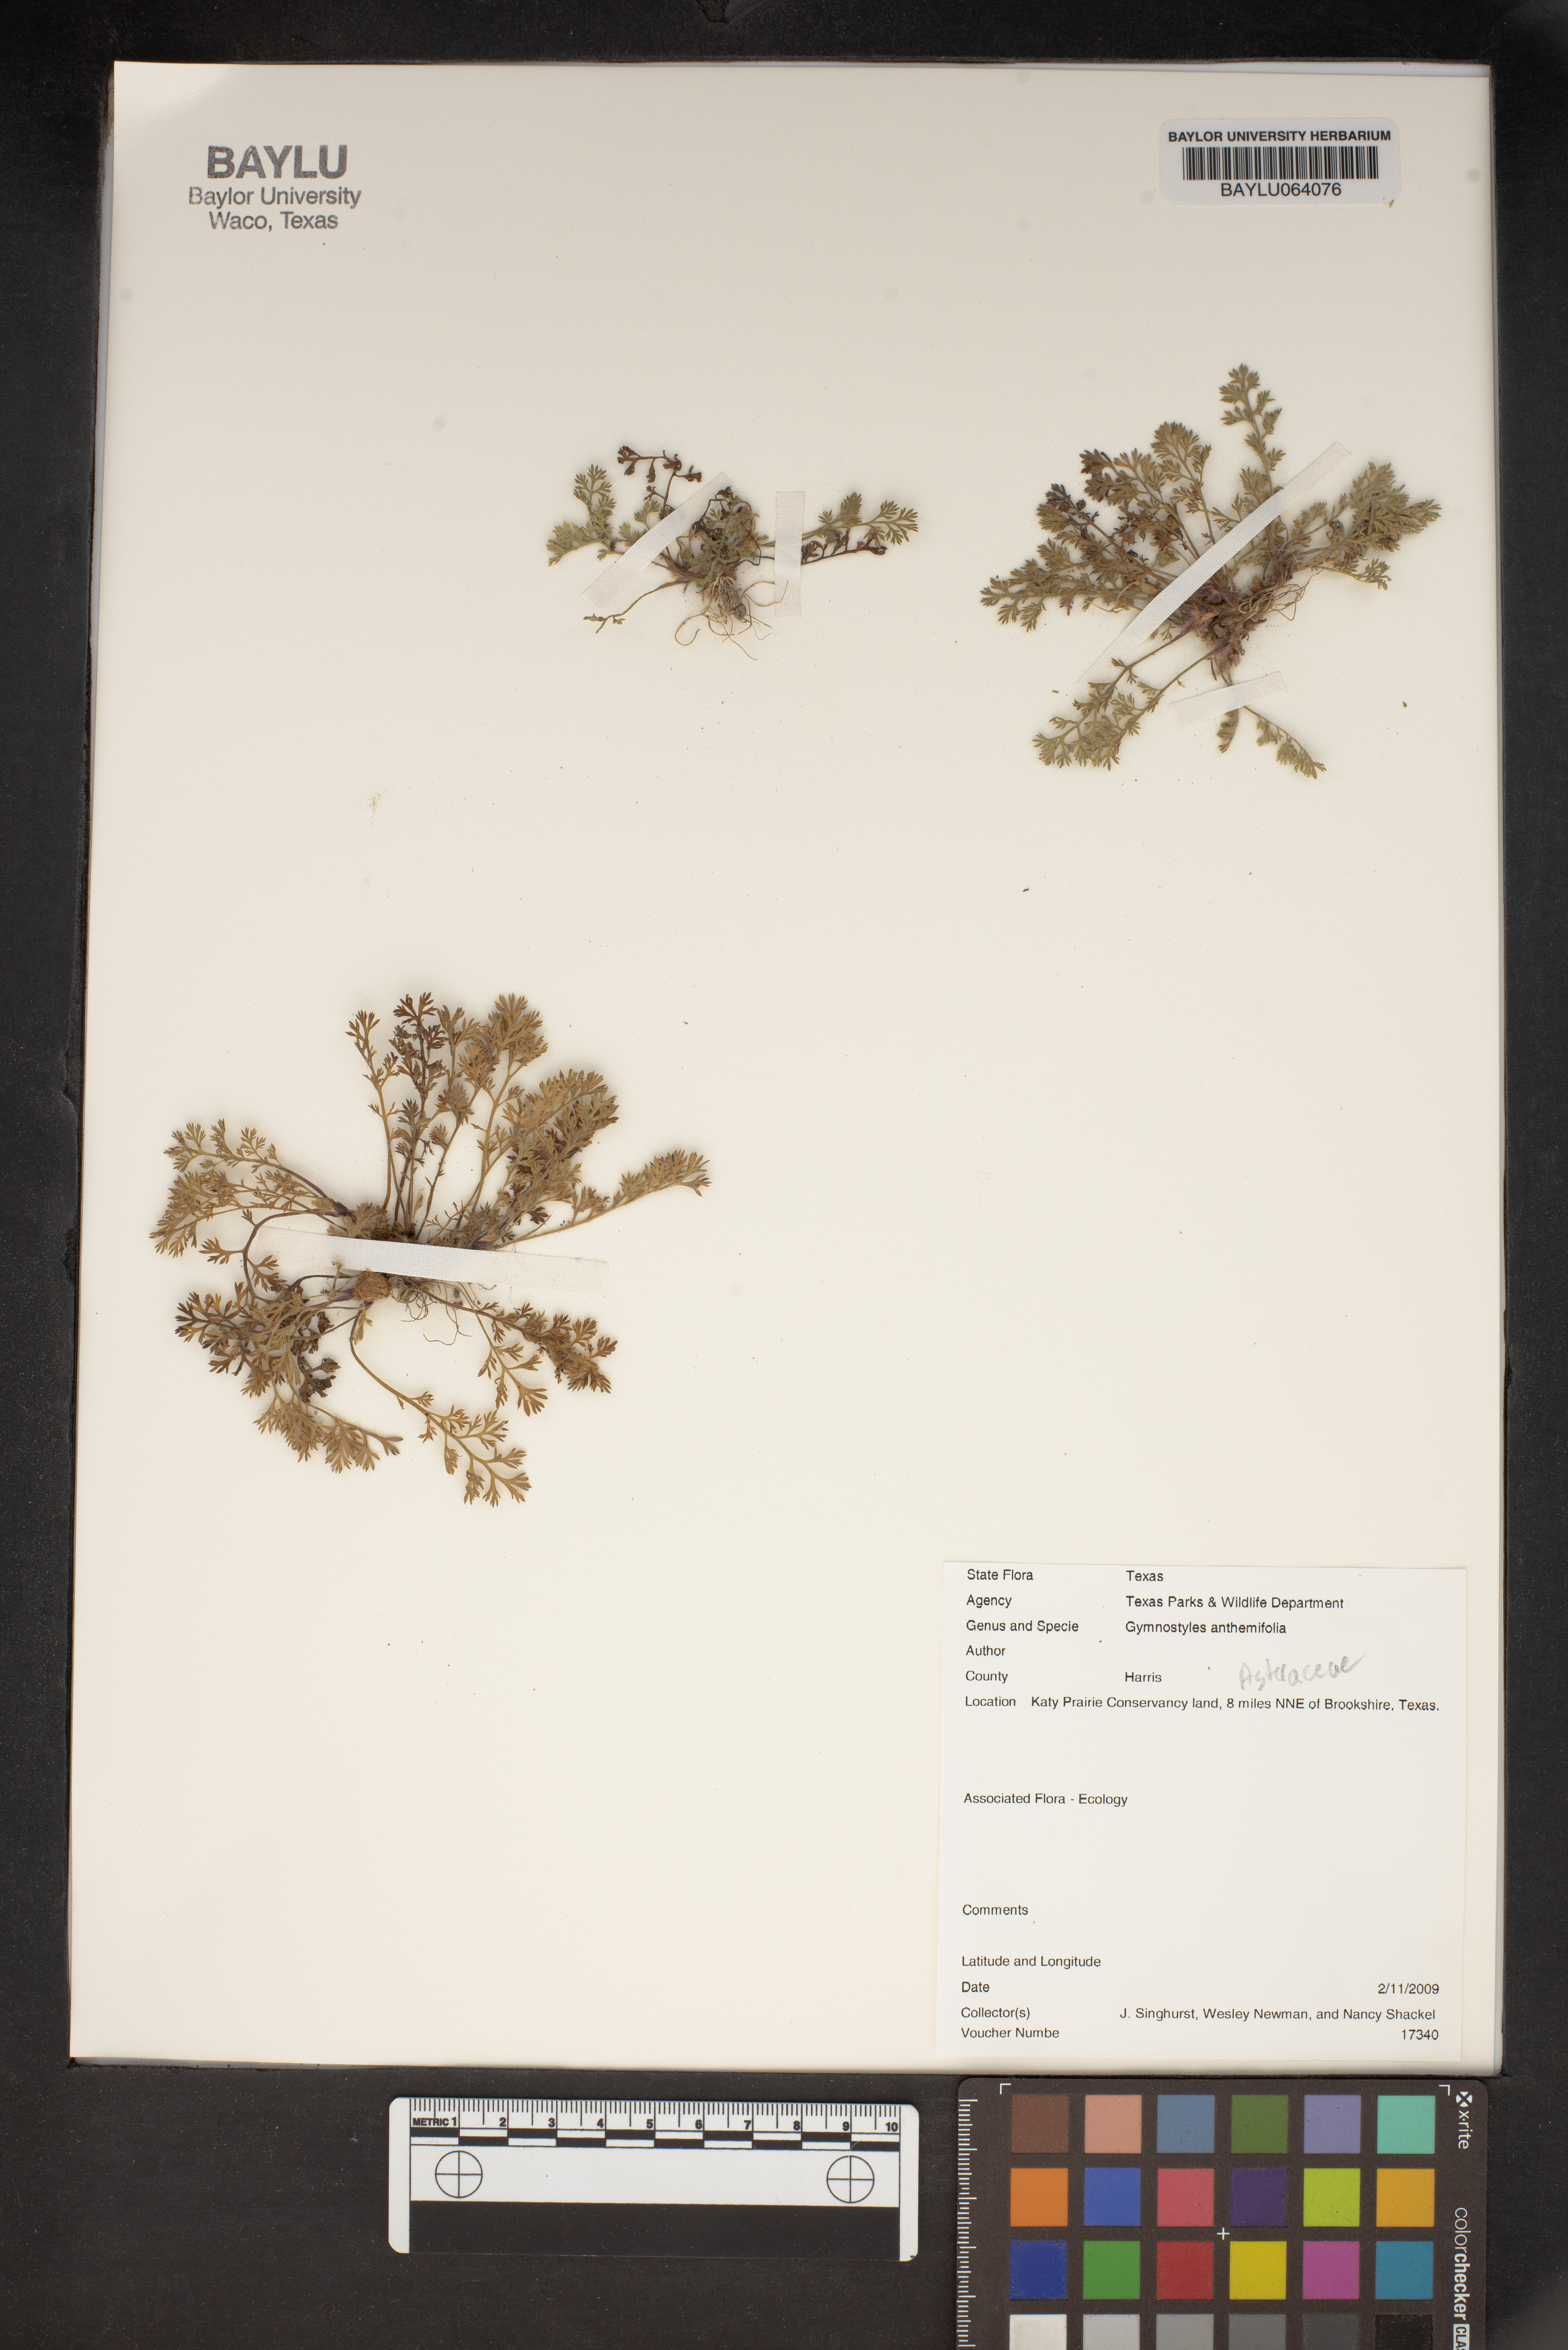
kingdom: Plantae
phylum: Tracheophyta
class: Magnoliopsida
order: Asterales
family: Asteraceae
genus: Soliva
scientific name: Soliva anthemifolia
